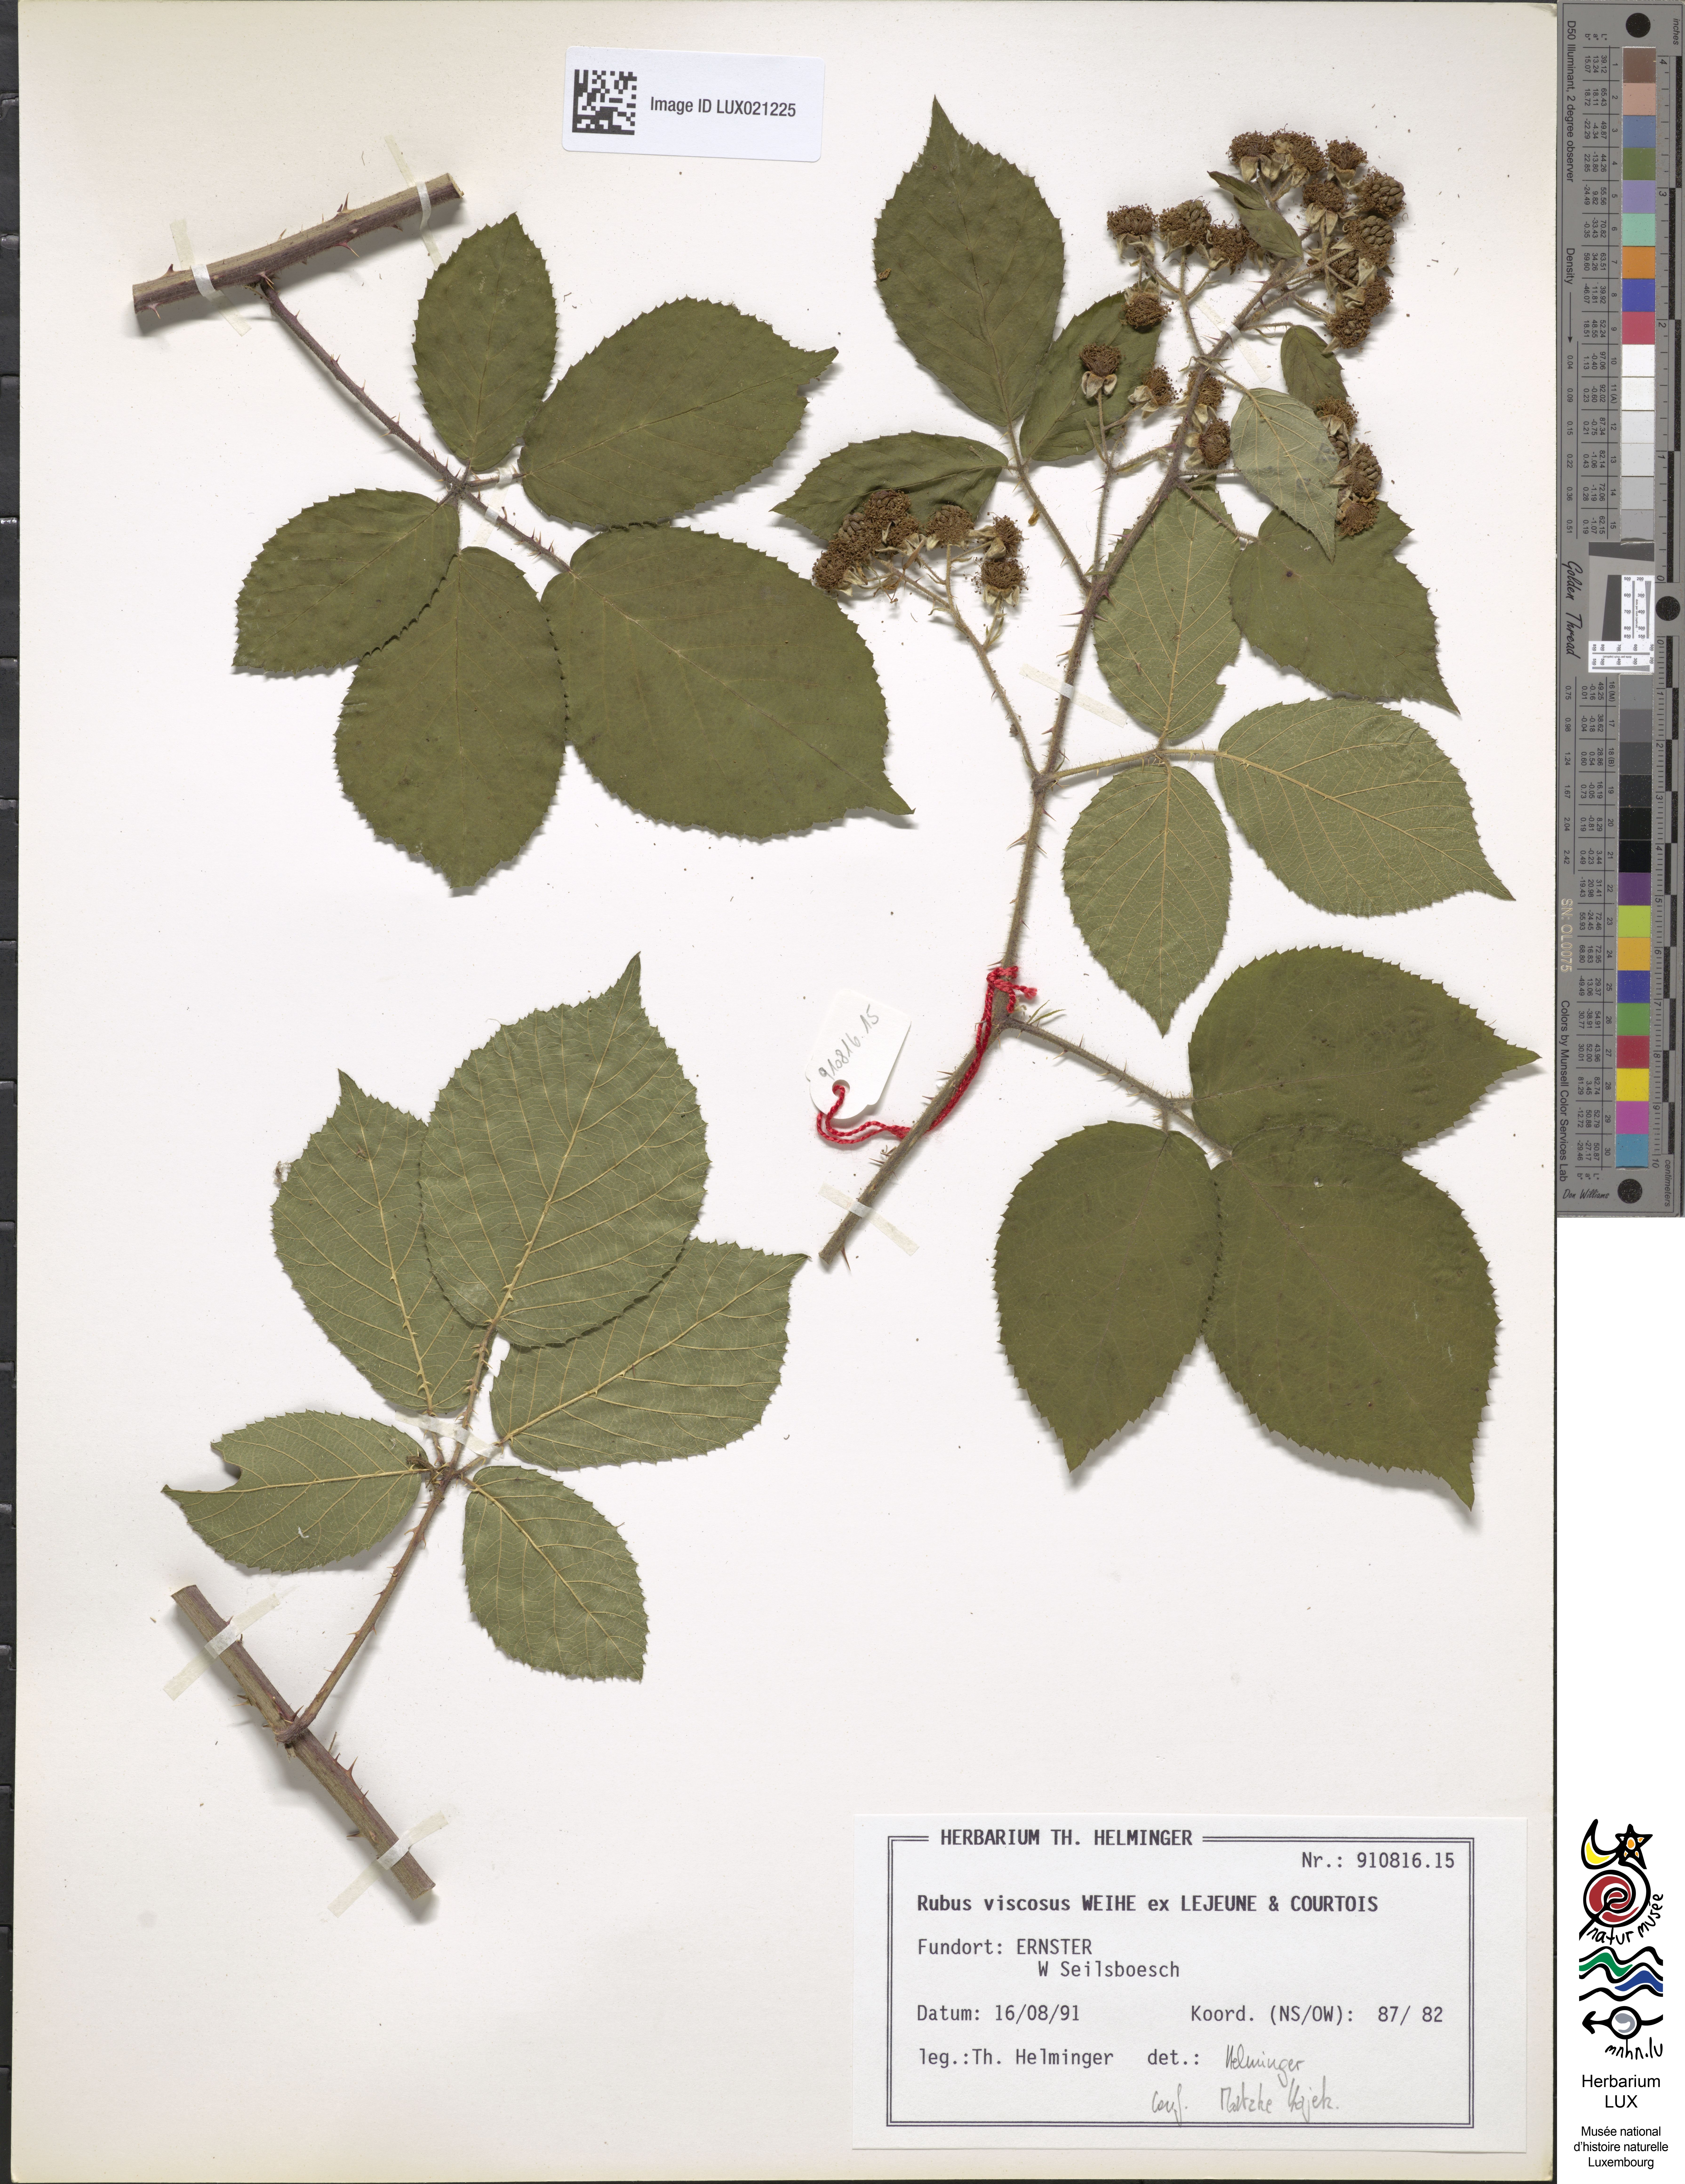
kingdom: Plantae
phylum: Tracheophyta
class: Magnoliopsida
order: Rosales
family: Rosaceae
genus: Rubus
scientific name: Rubus viscosus
